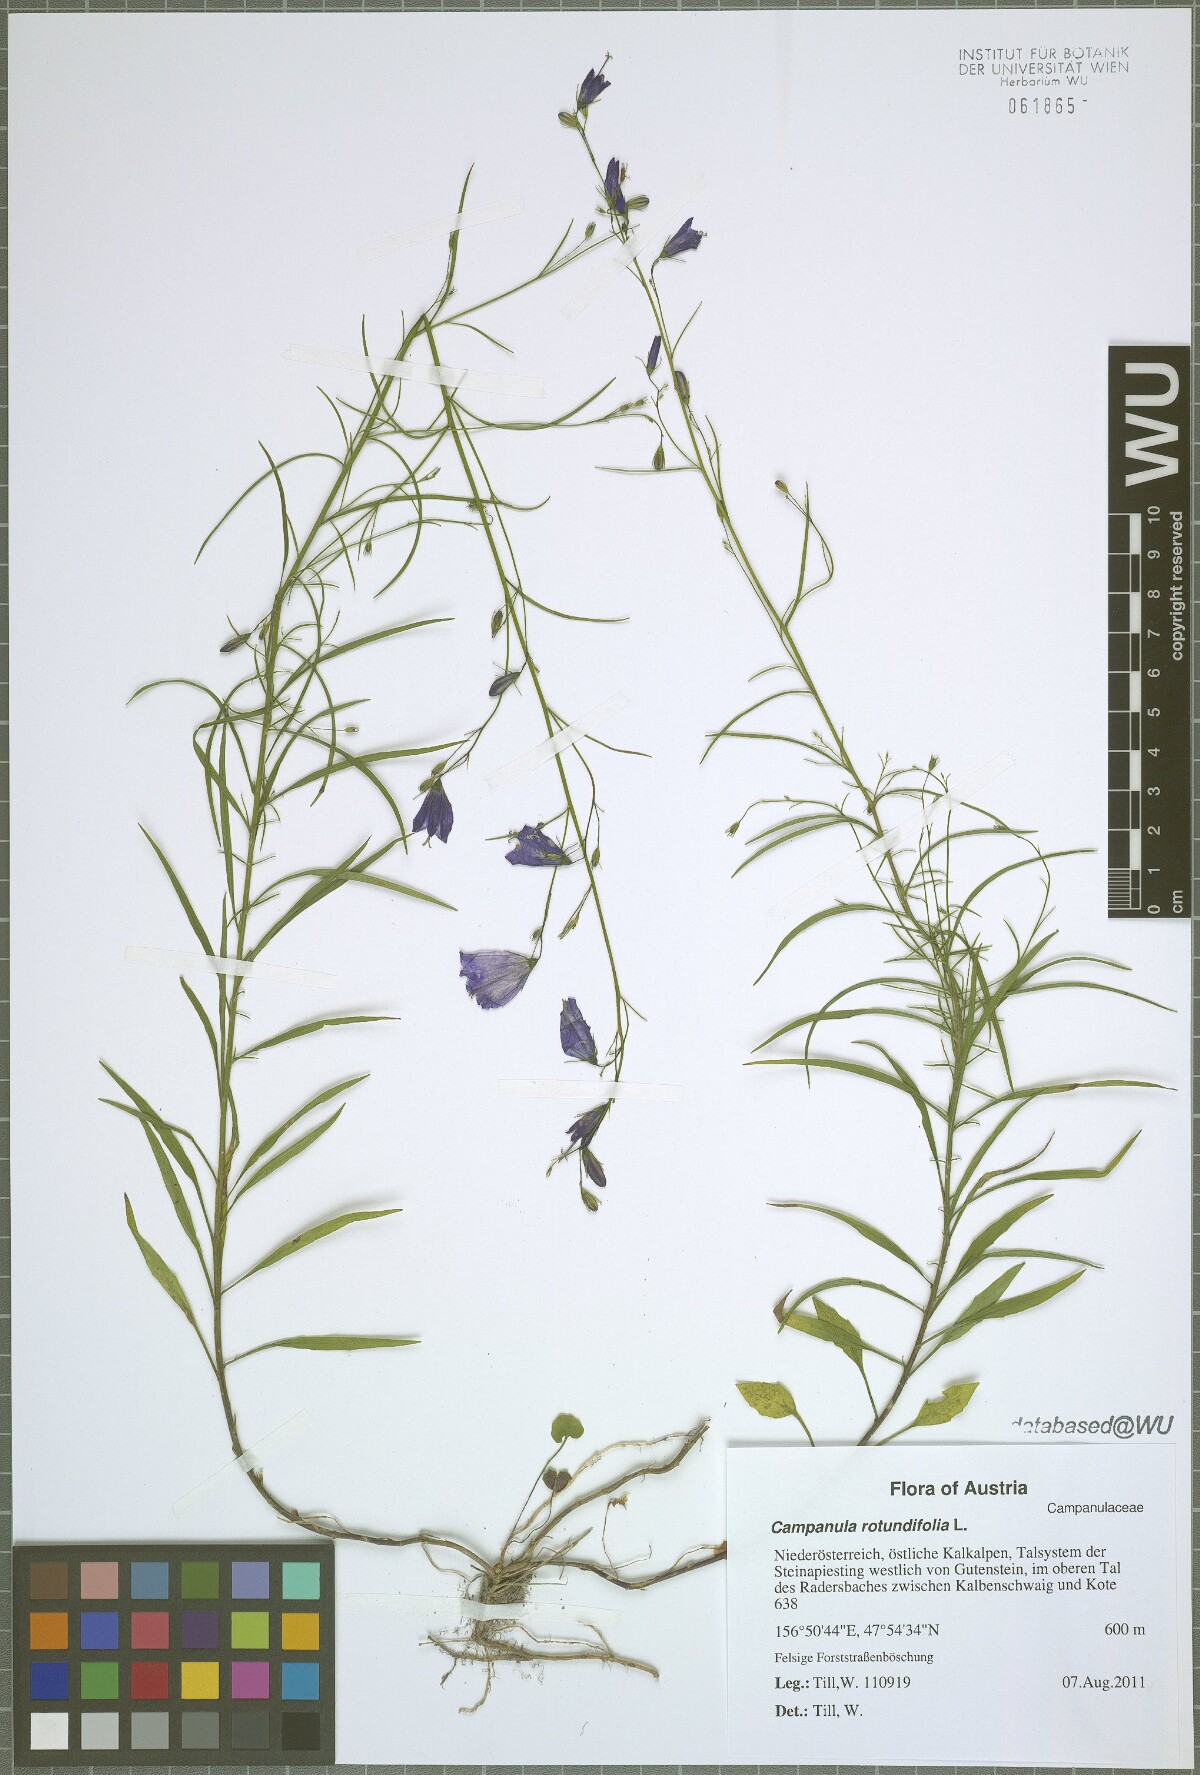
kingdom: Plantae
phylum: Tracheophyta
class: Magnoliopsida
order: Asterales
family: Campanulaceae
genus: Campanula
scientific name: Campanula rotundifolia
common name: Harebell
